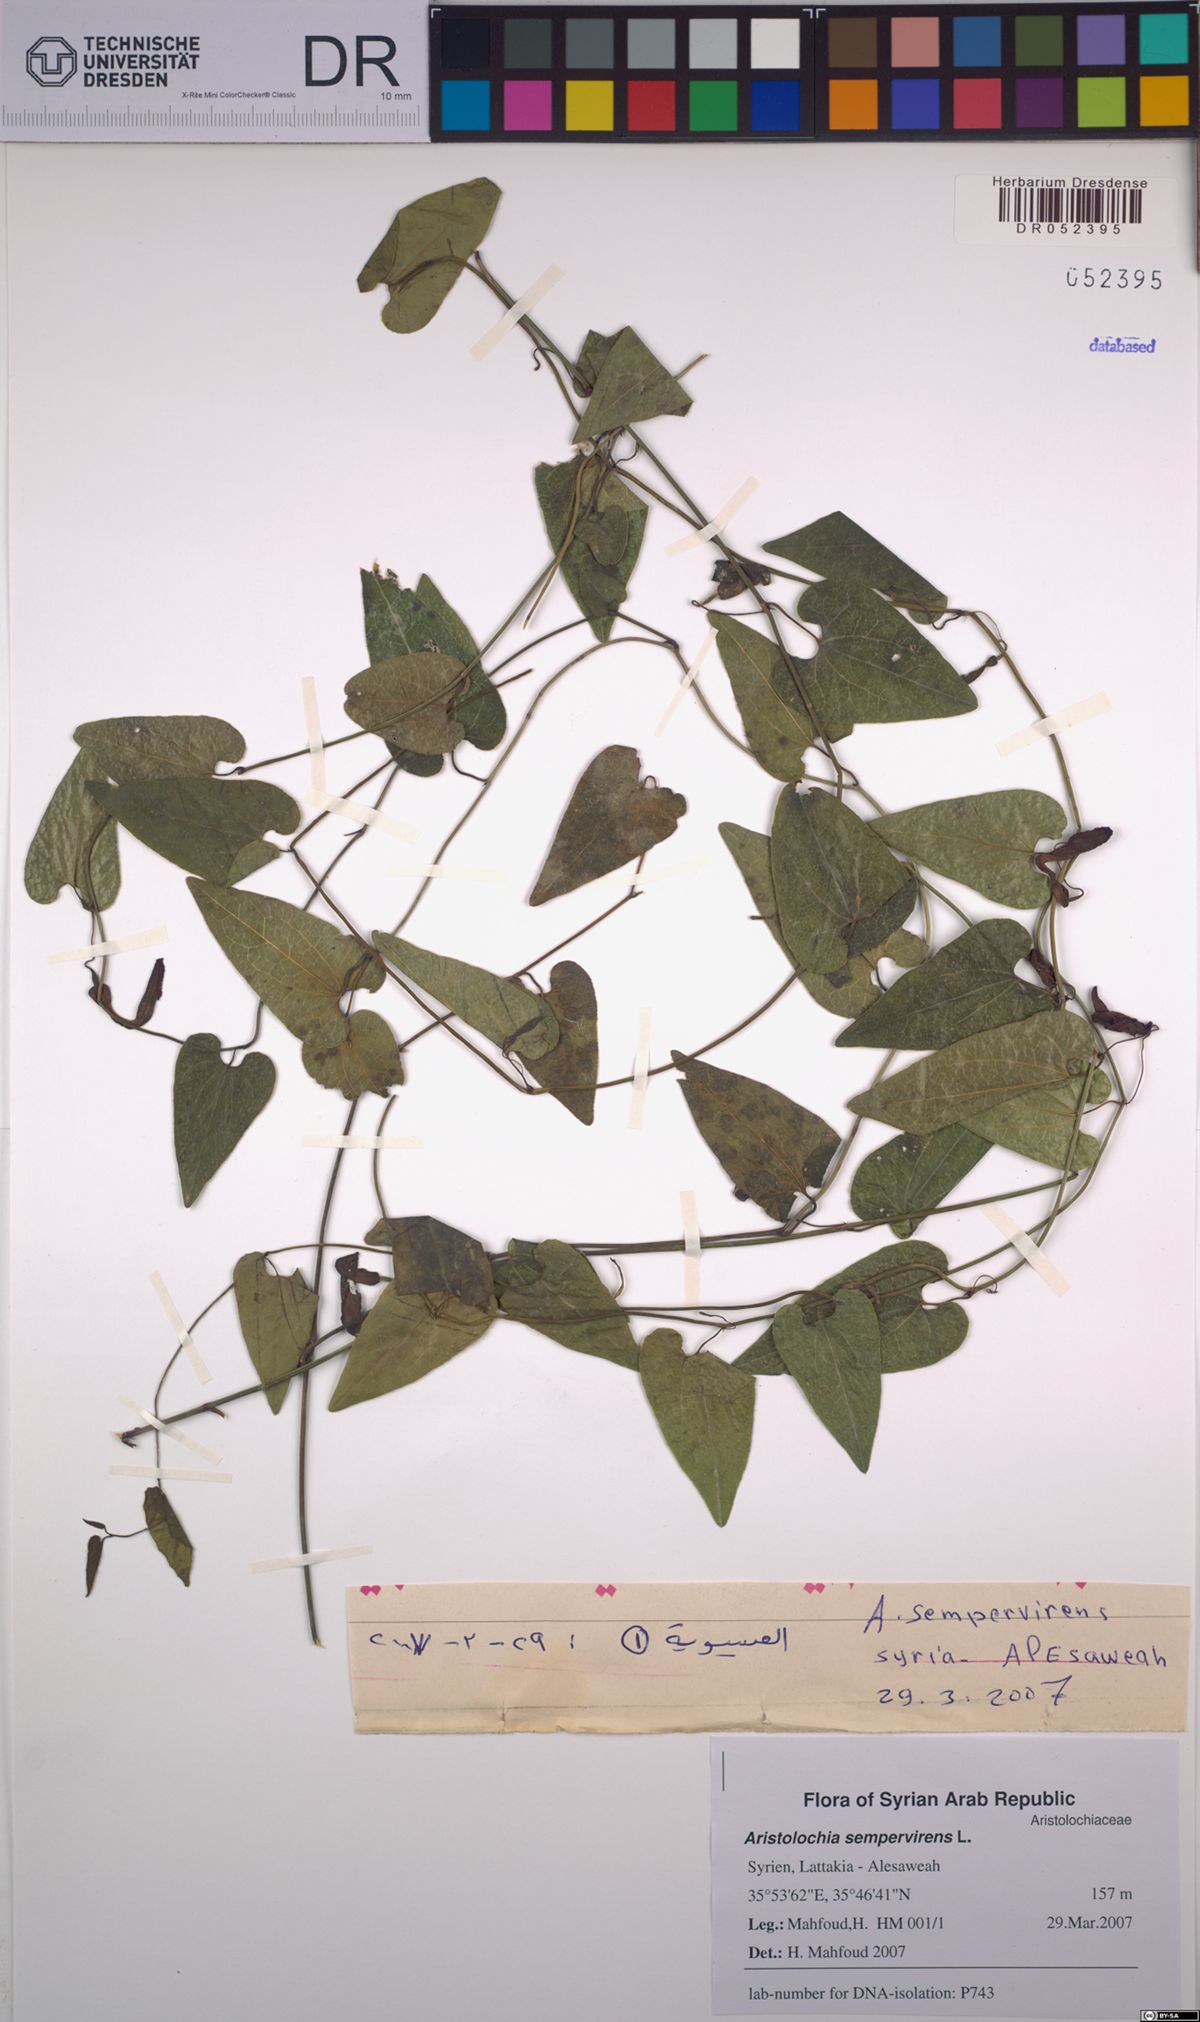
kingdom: Plantae
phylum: Tracheophyta
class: Magnoliopsida
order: Piperales
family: Aristolochiaceae
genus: Aristolochia
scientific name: Aristolochia sempervirens
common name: Long birthwort
